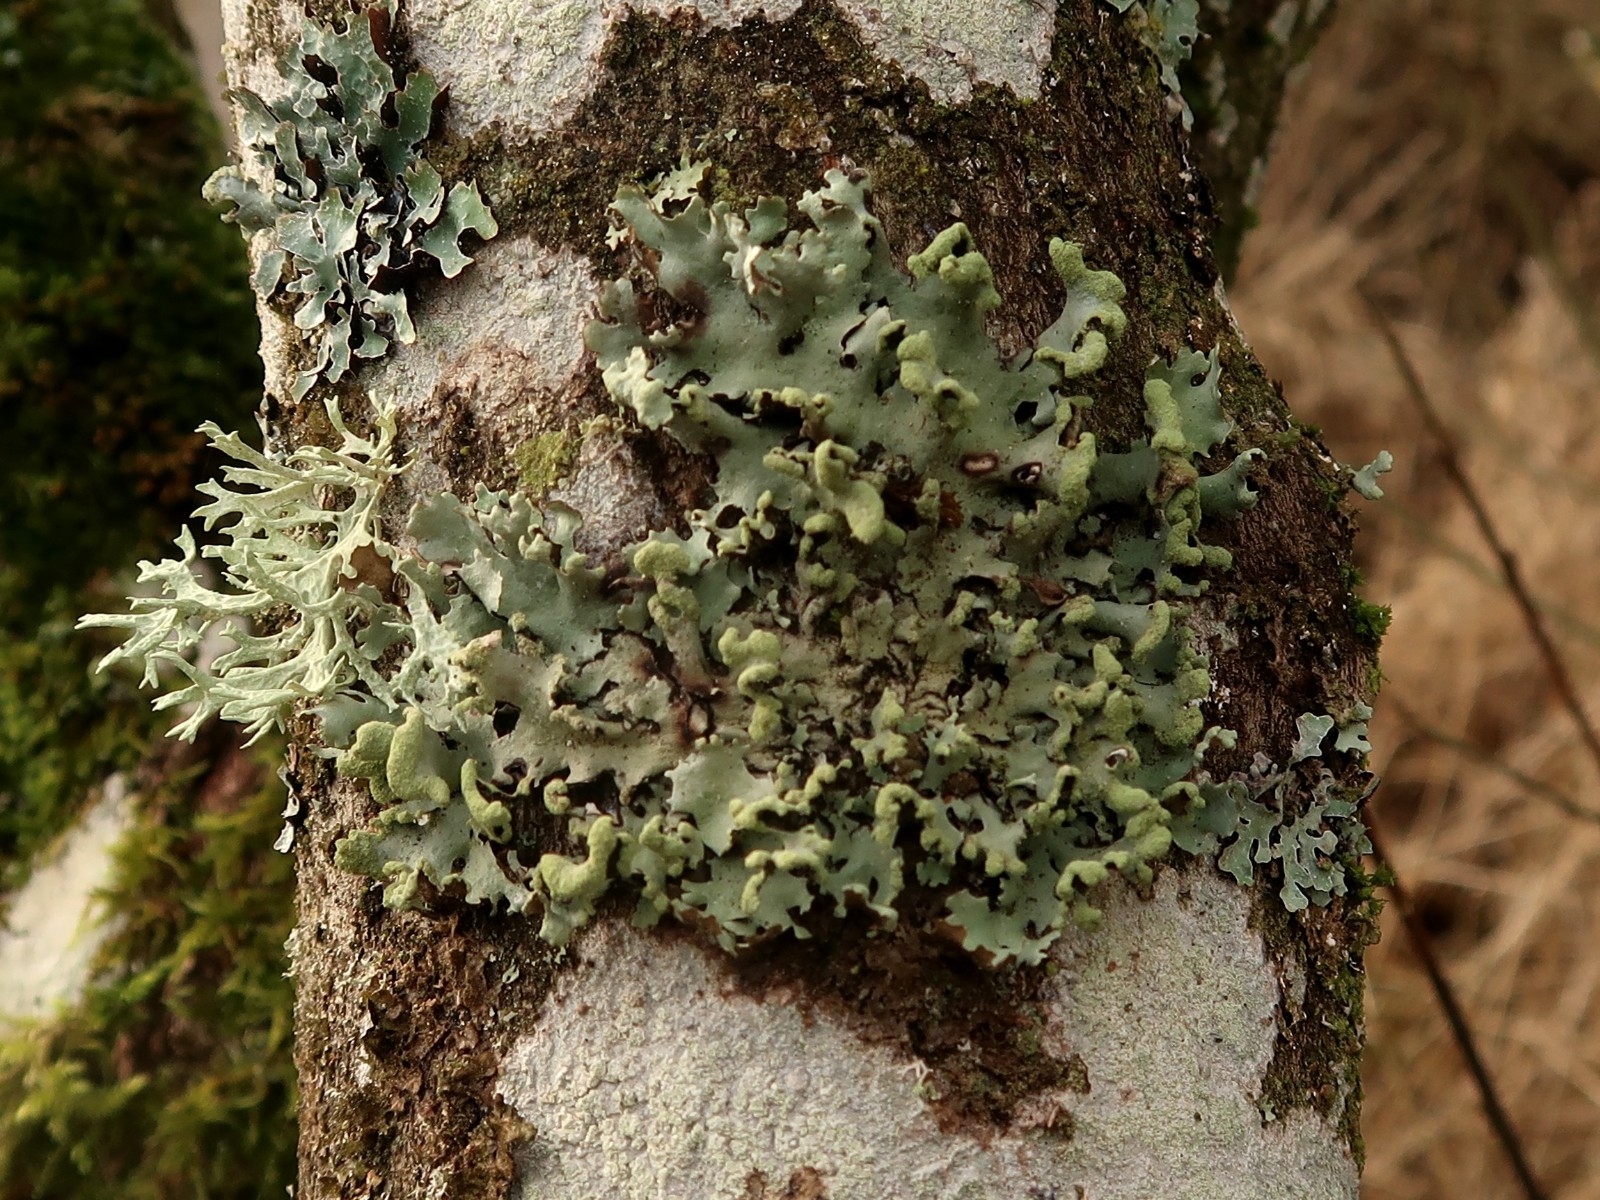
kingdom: Fungi
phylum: Ascomycota
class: Lecanoromycetes
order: Lecanorales
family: Parmeliaceae
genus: Hypotrachyna
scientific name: Hypotrachyna revoluta
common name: bleggrå skållav
